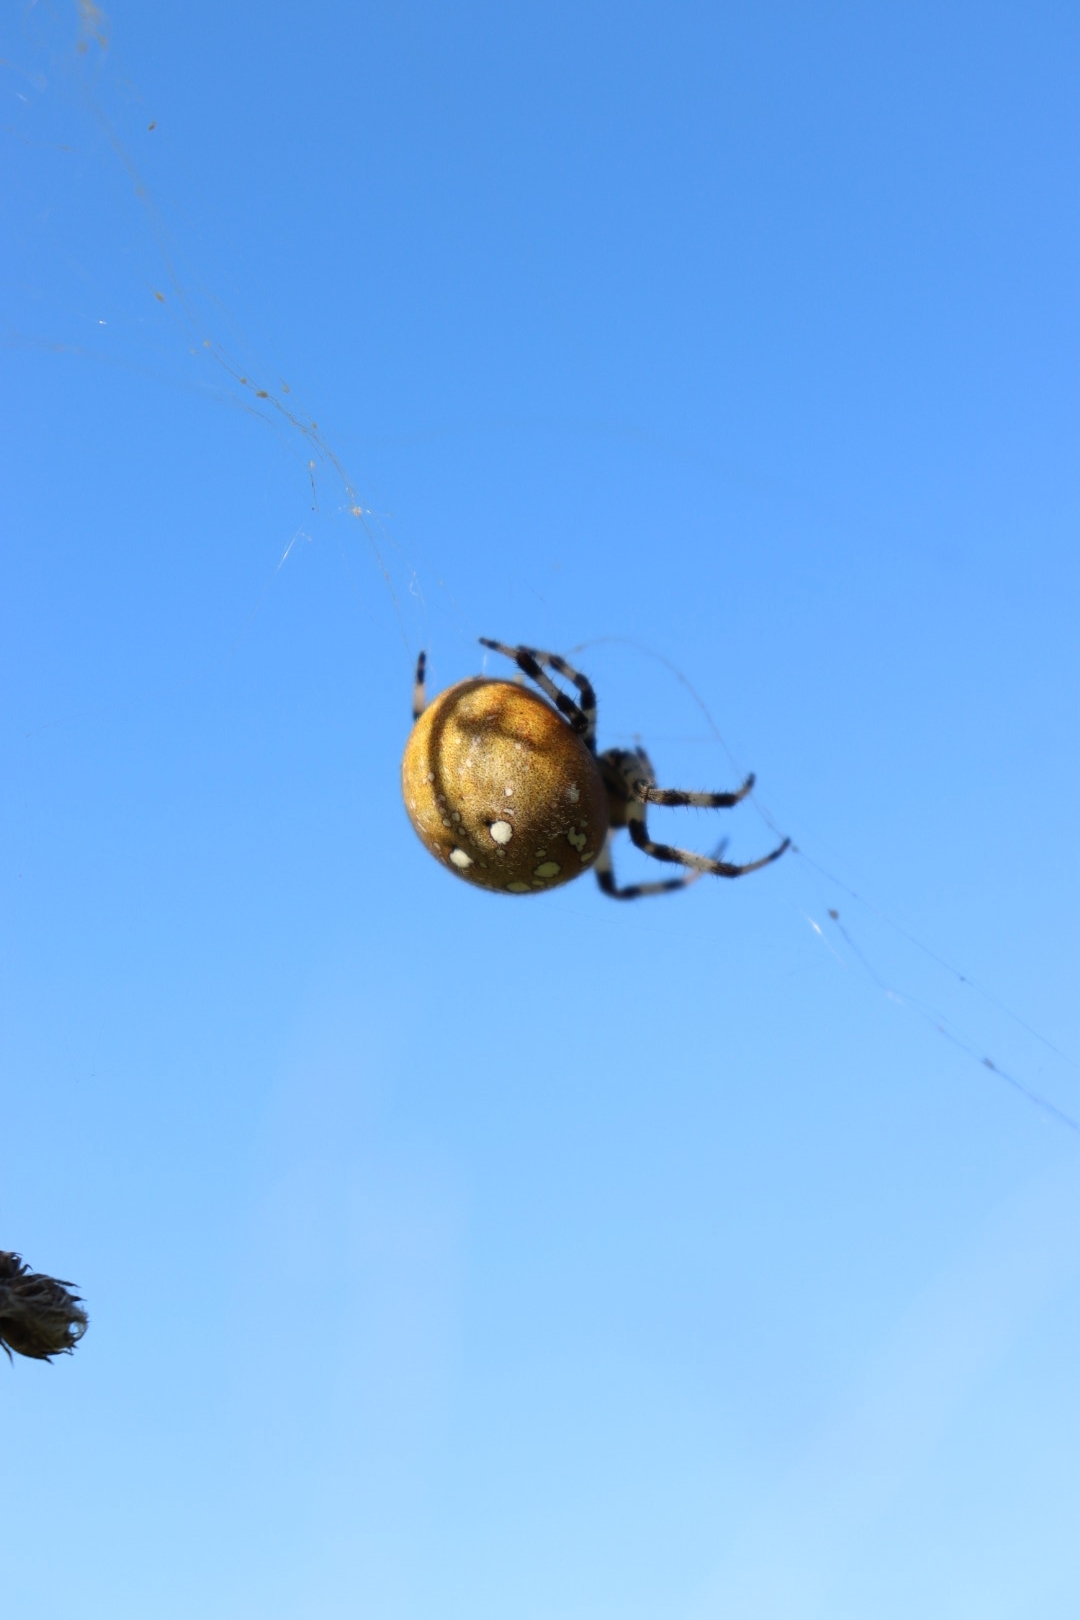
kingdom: Animalia
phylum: Arthropoda
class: Arachnida
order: Araneae
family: Araneidae
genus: Araneus
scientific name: Araneus quadratus
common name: Kvadratedderkop
